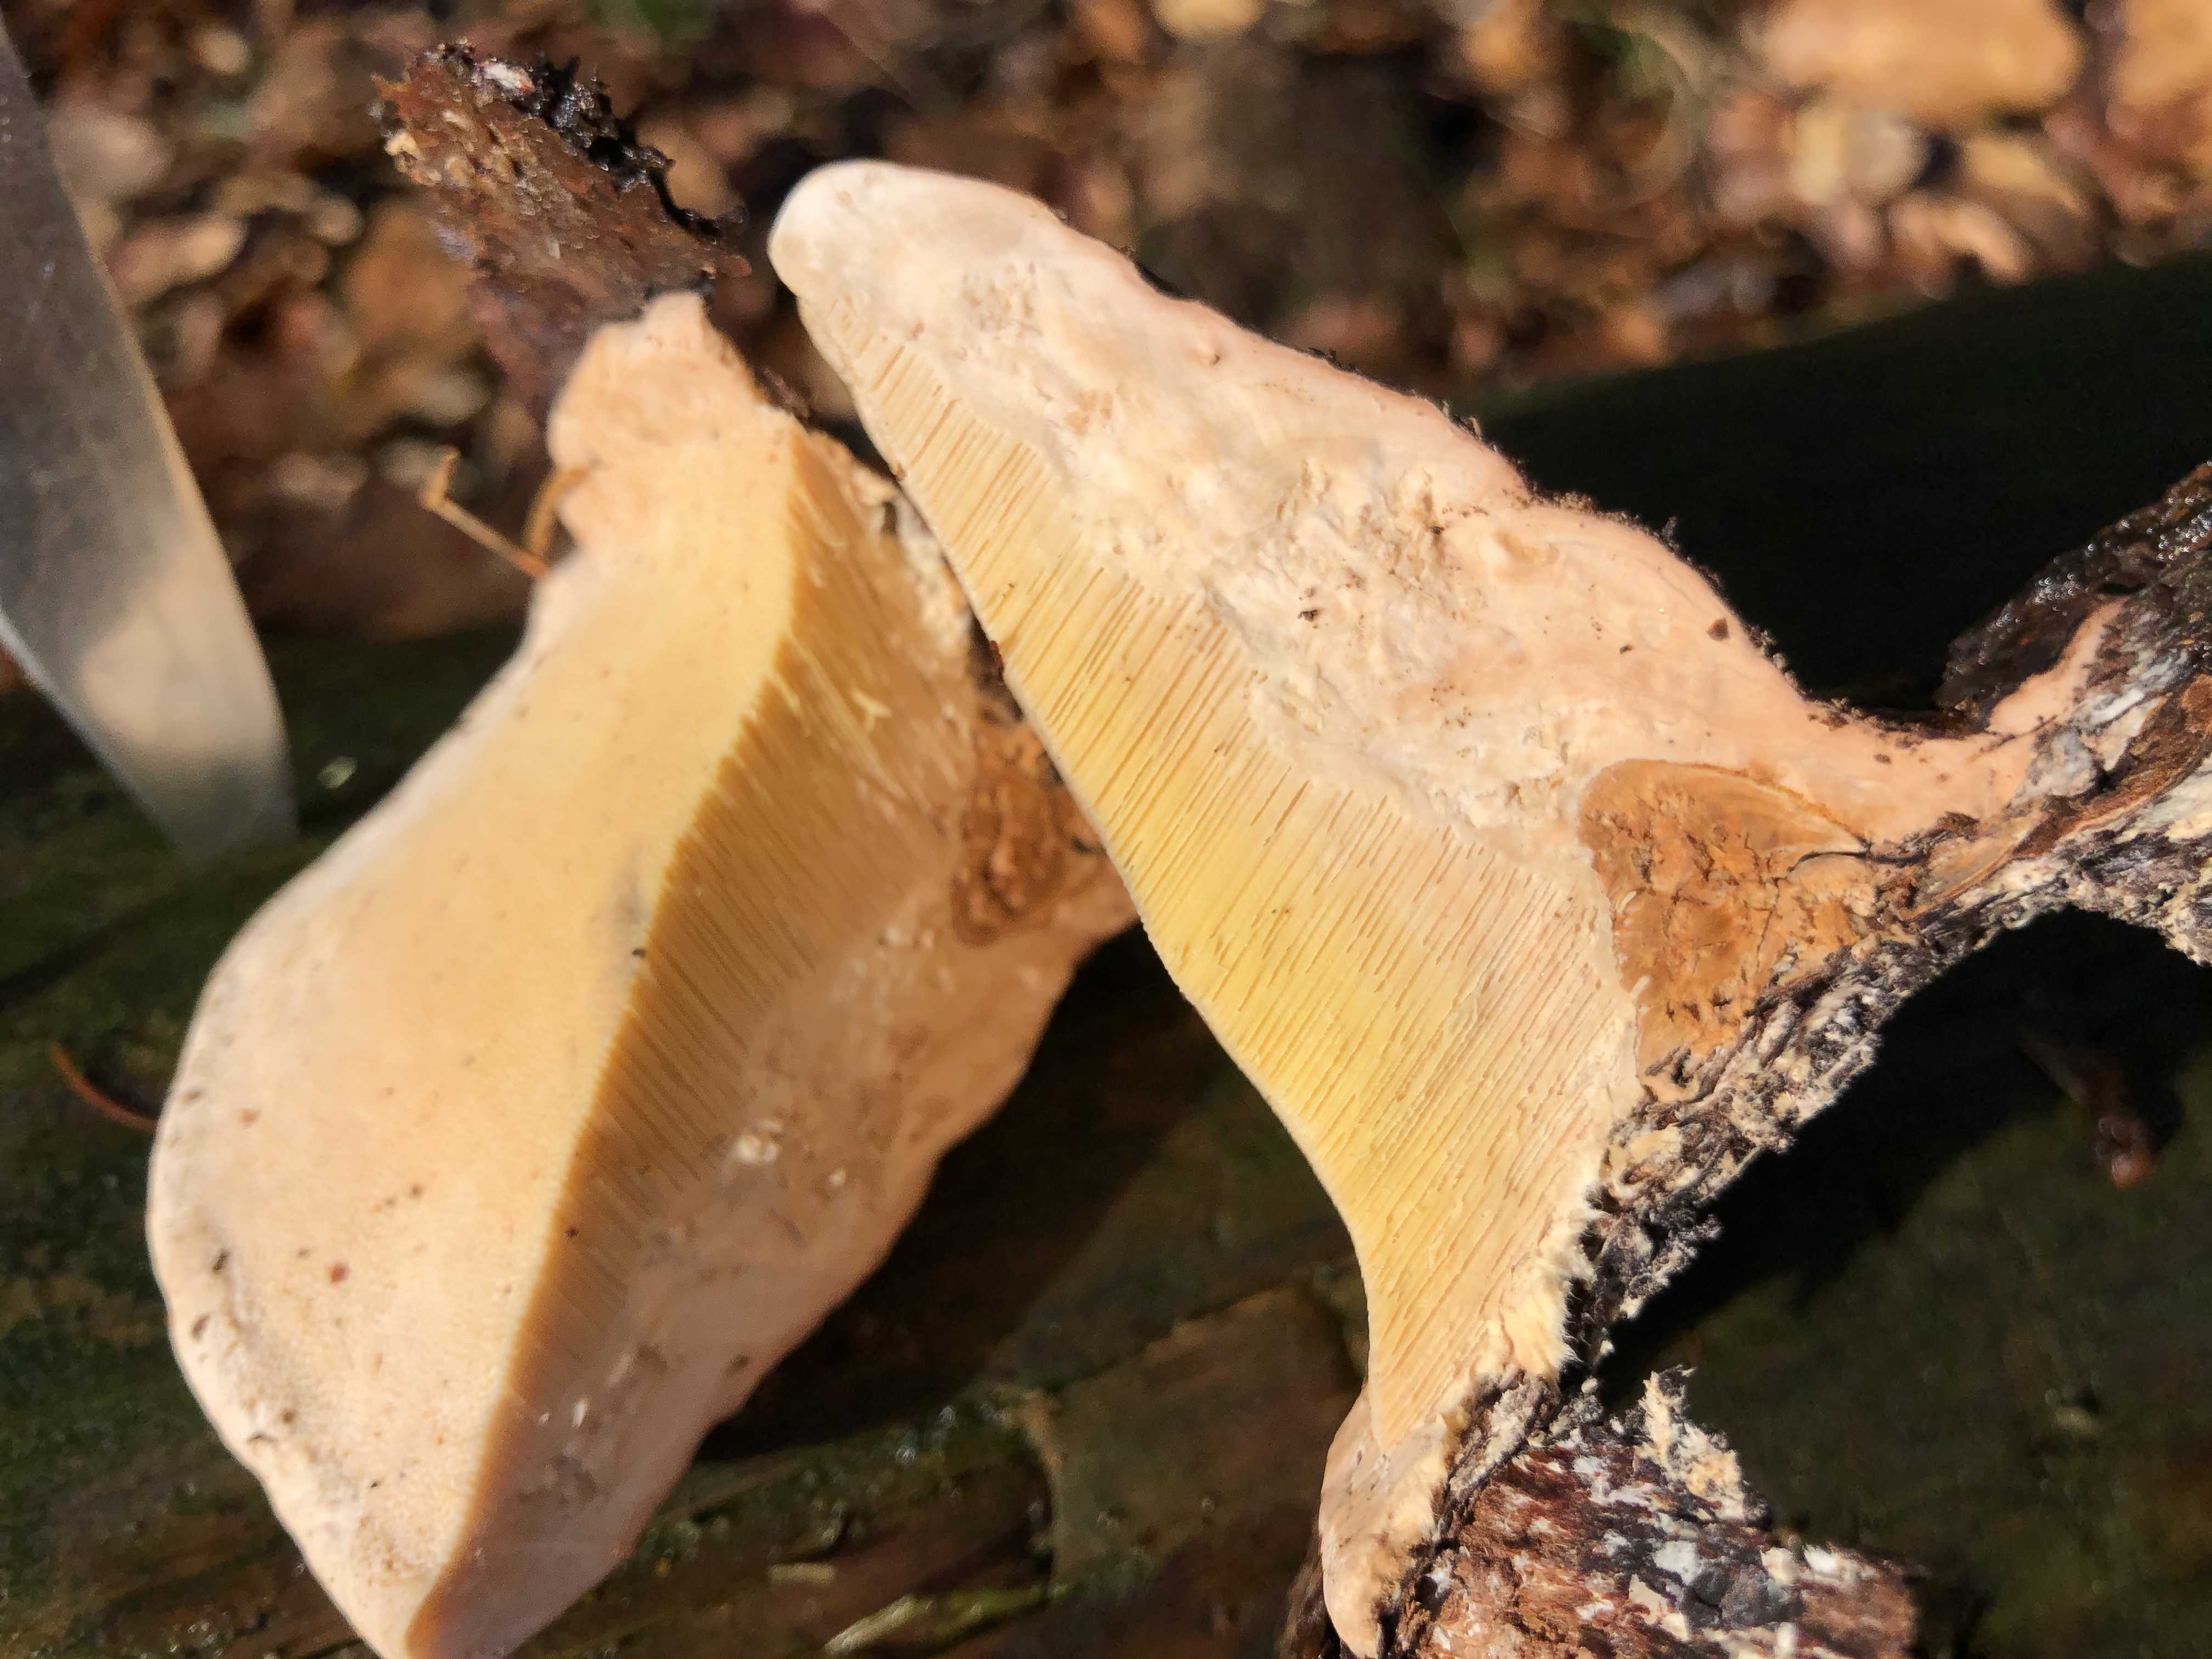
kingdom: Fungi
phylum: Basidiomycota
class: Agaricomycetes
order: Polyporales
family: Fomitopsidaceae
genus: Fomitopsis
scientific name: Fomitopsis pinicola
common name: randbæltet hovporesvamp
